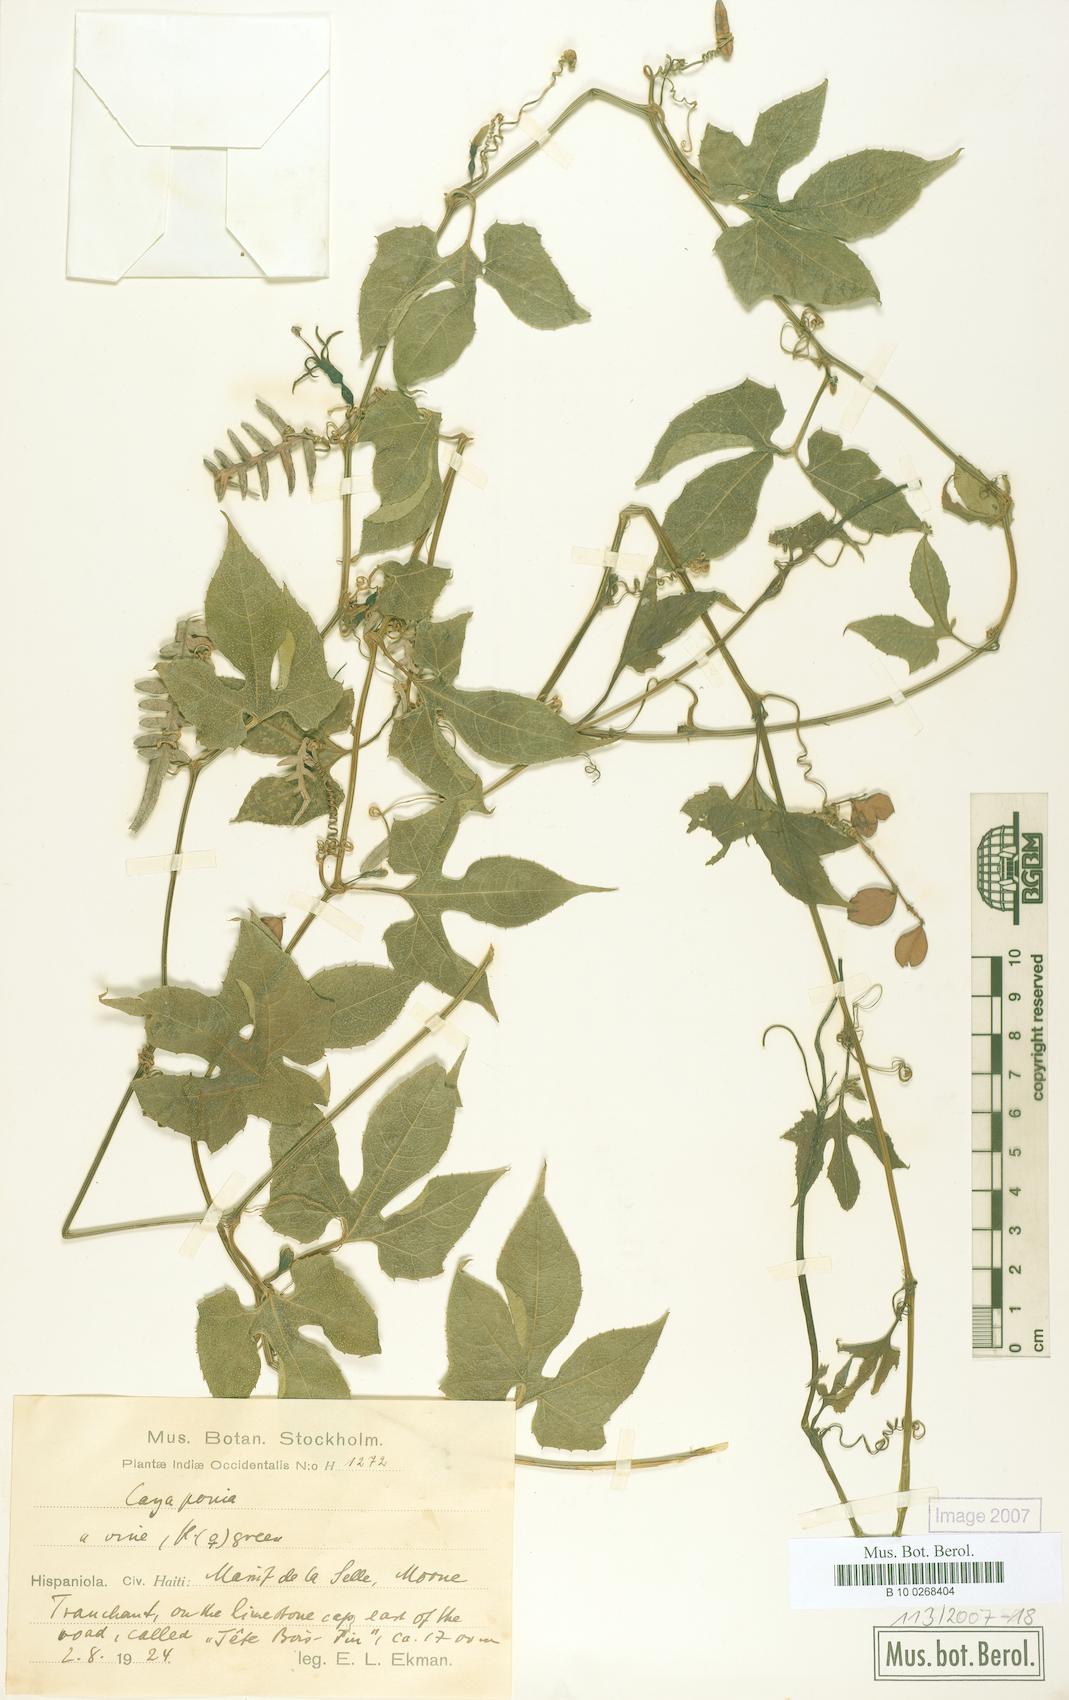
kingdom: Plantae
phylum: Tracheophyta
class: Magnoliopsida
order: Cucurbitales
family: Cucurbitaceae
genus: Cayaponia
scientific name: Cayaponia americana
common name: American melonleaf
